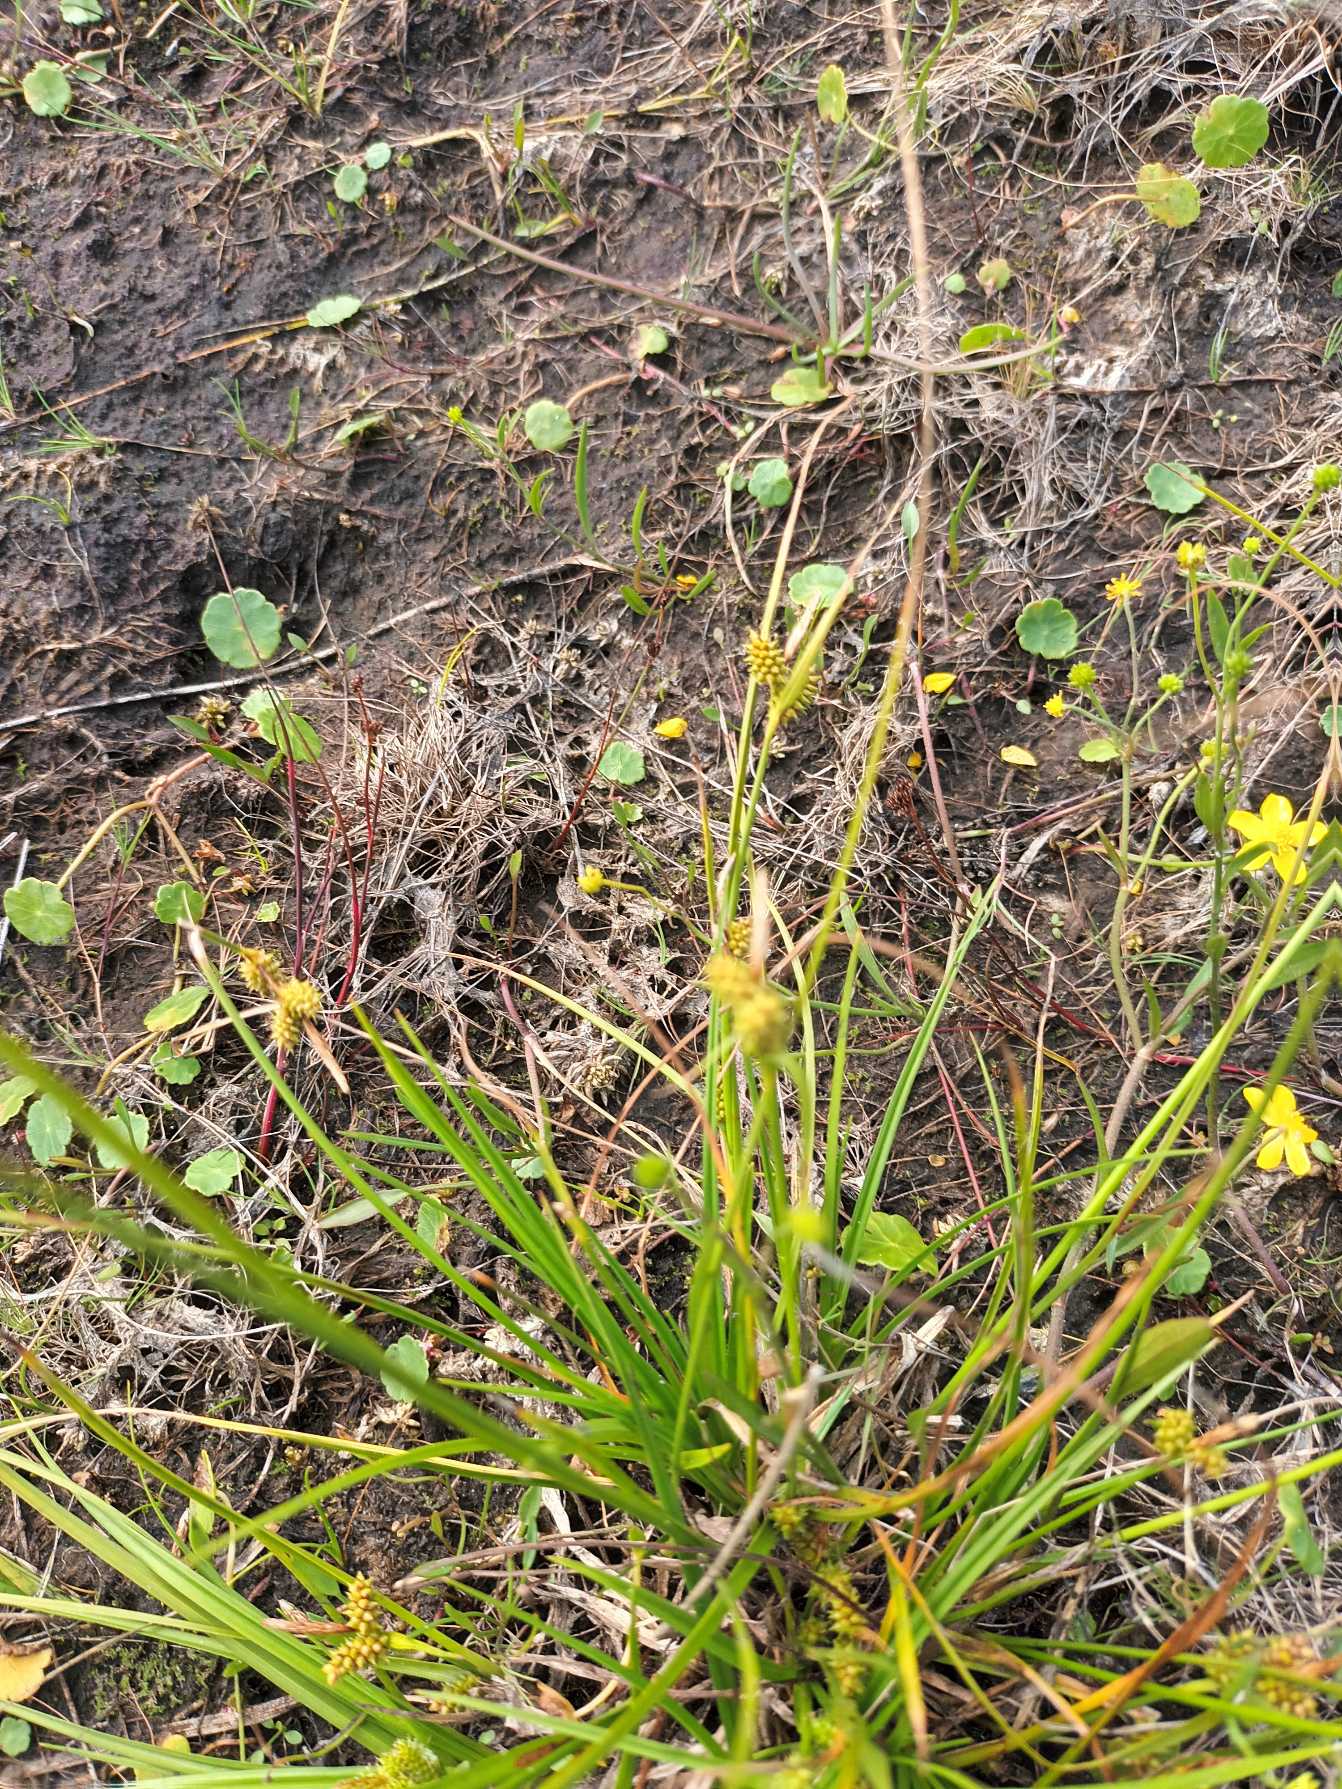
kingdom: Plantae
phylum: Tracheophyta
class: Liliopsida
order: Poales
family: Cyperaceae
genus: Carex
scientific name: Carex oederi
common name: Dværg-star
